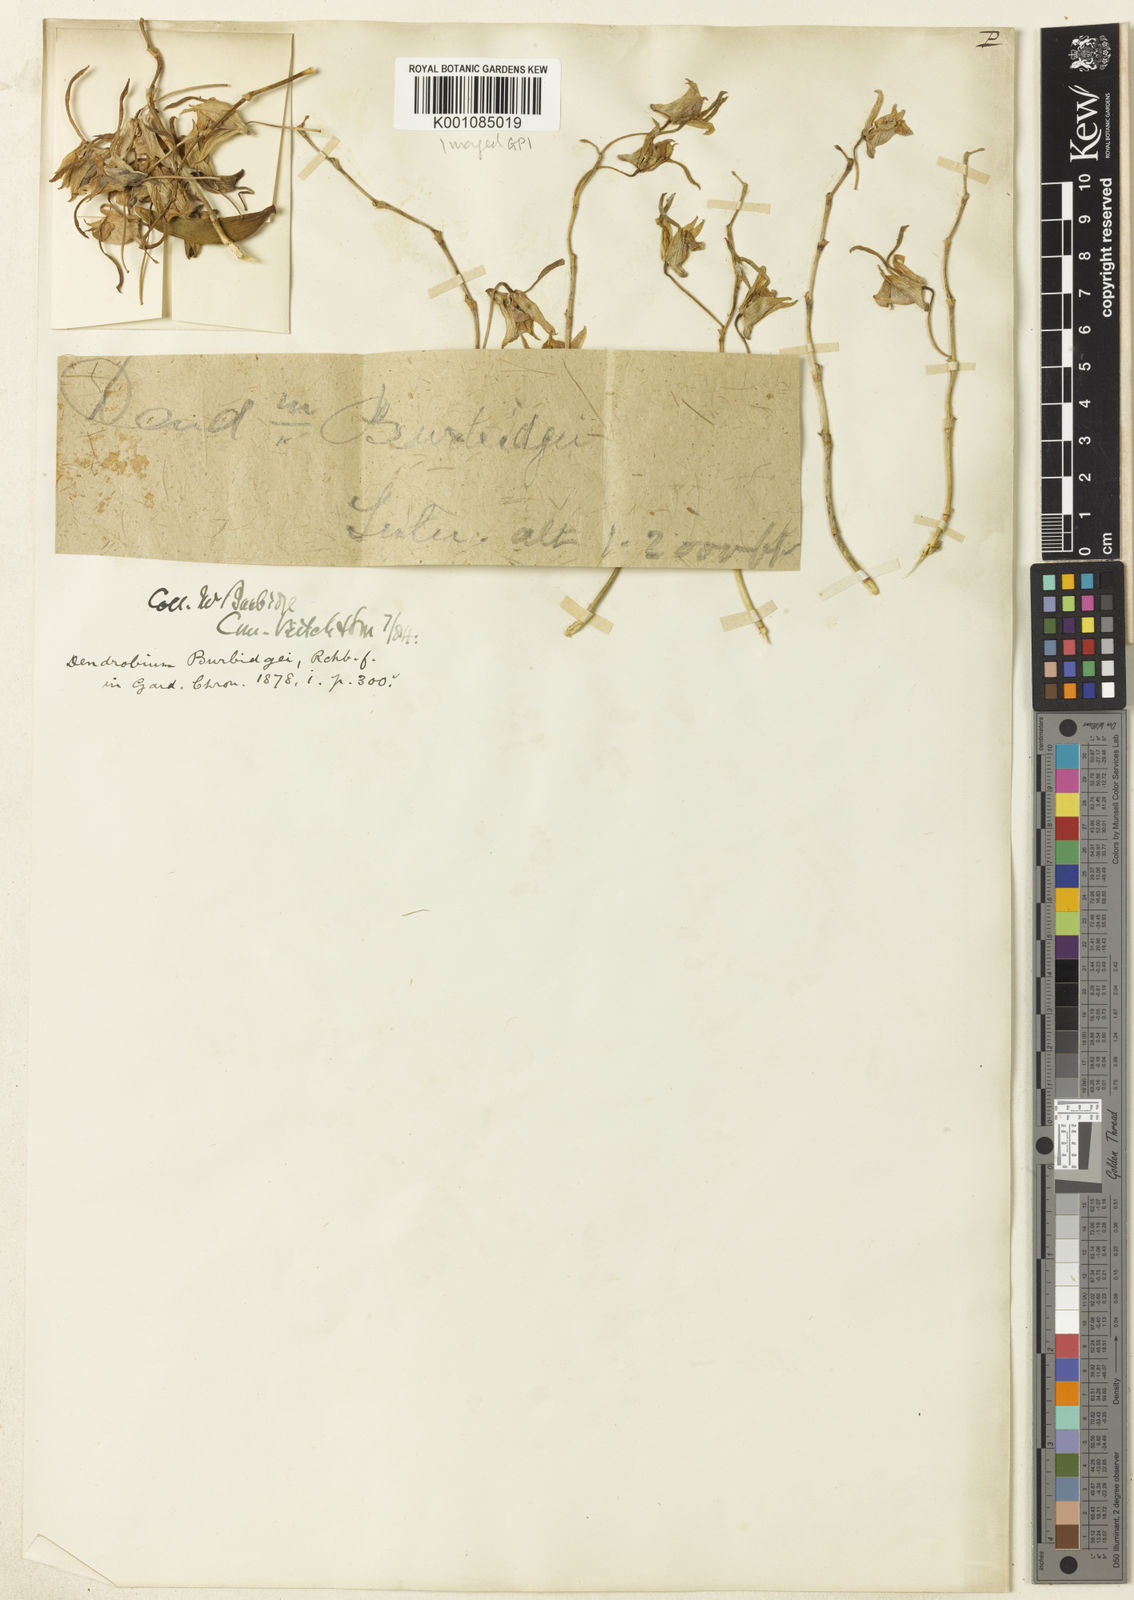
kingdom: Plantae
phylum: Tracheophyta
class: Liliopsida
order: Asparagales
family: Orchidaceae
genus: Dendrobium
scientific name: Dendrobium bicaudatum
